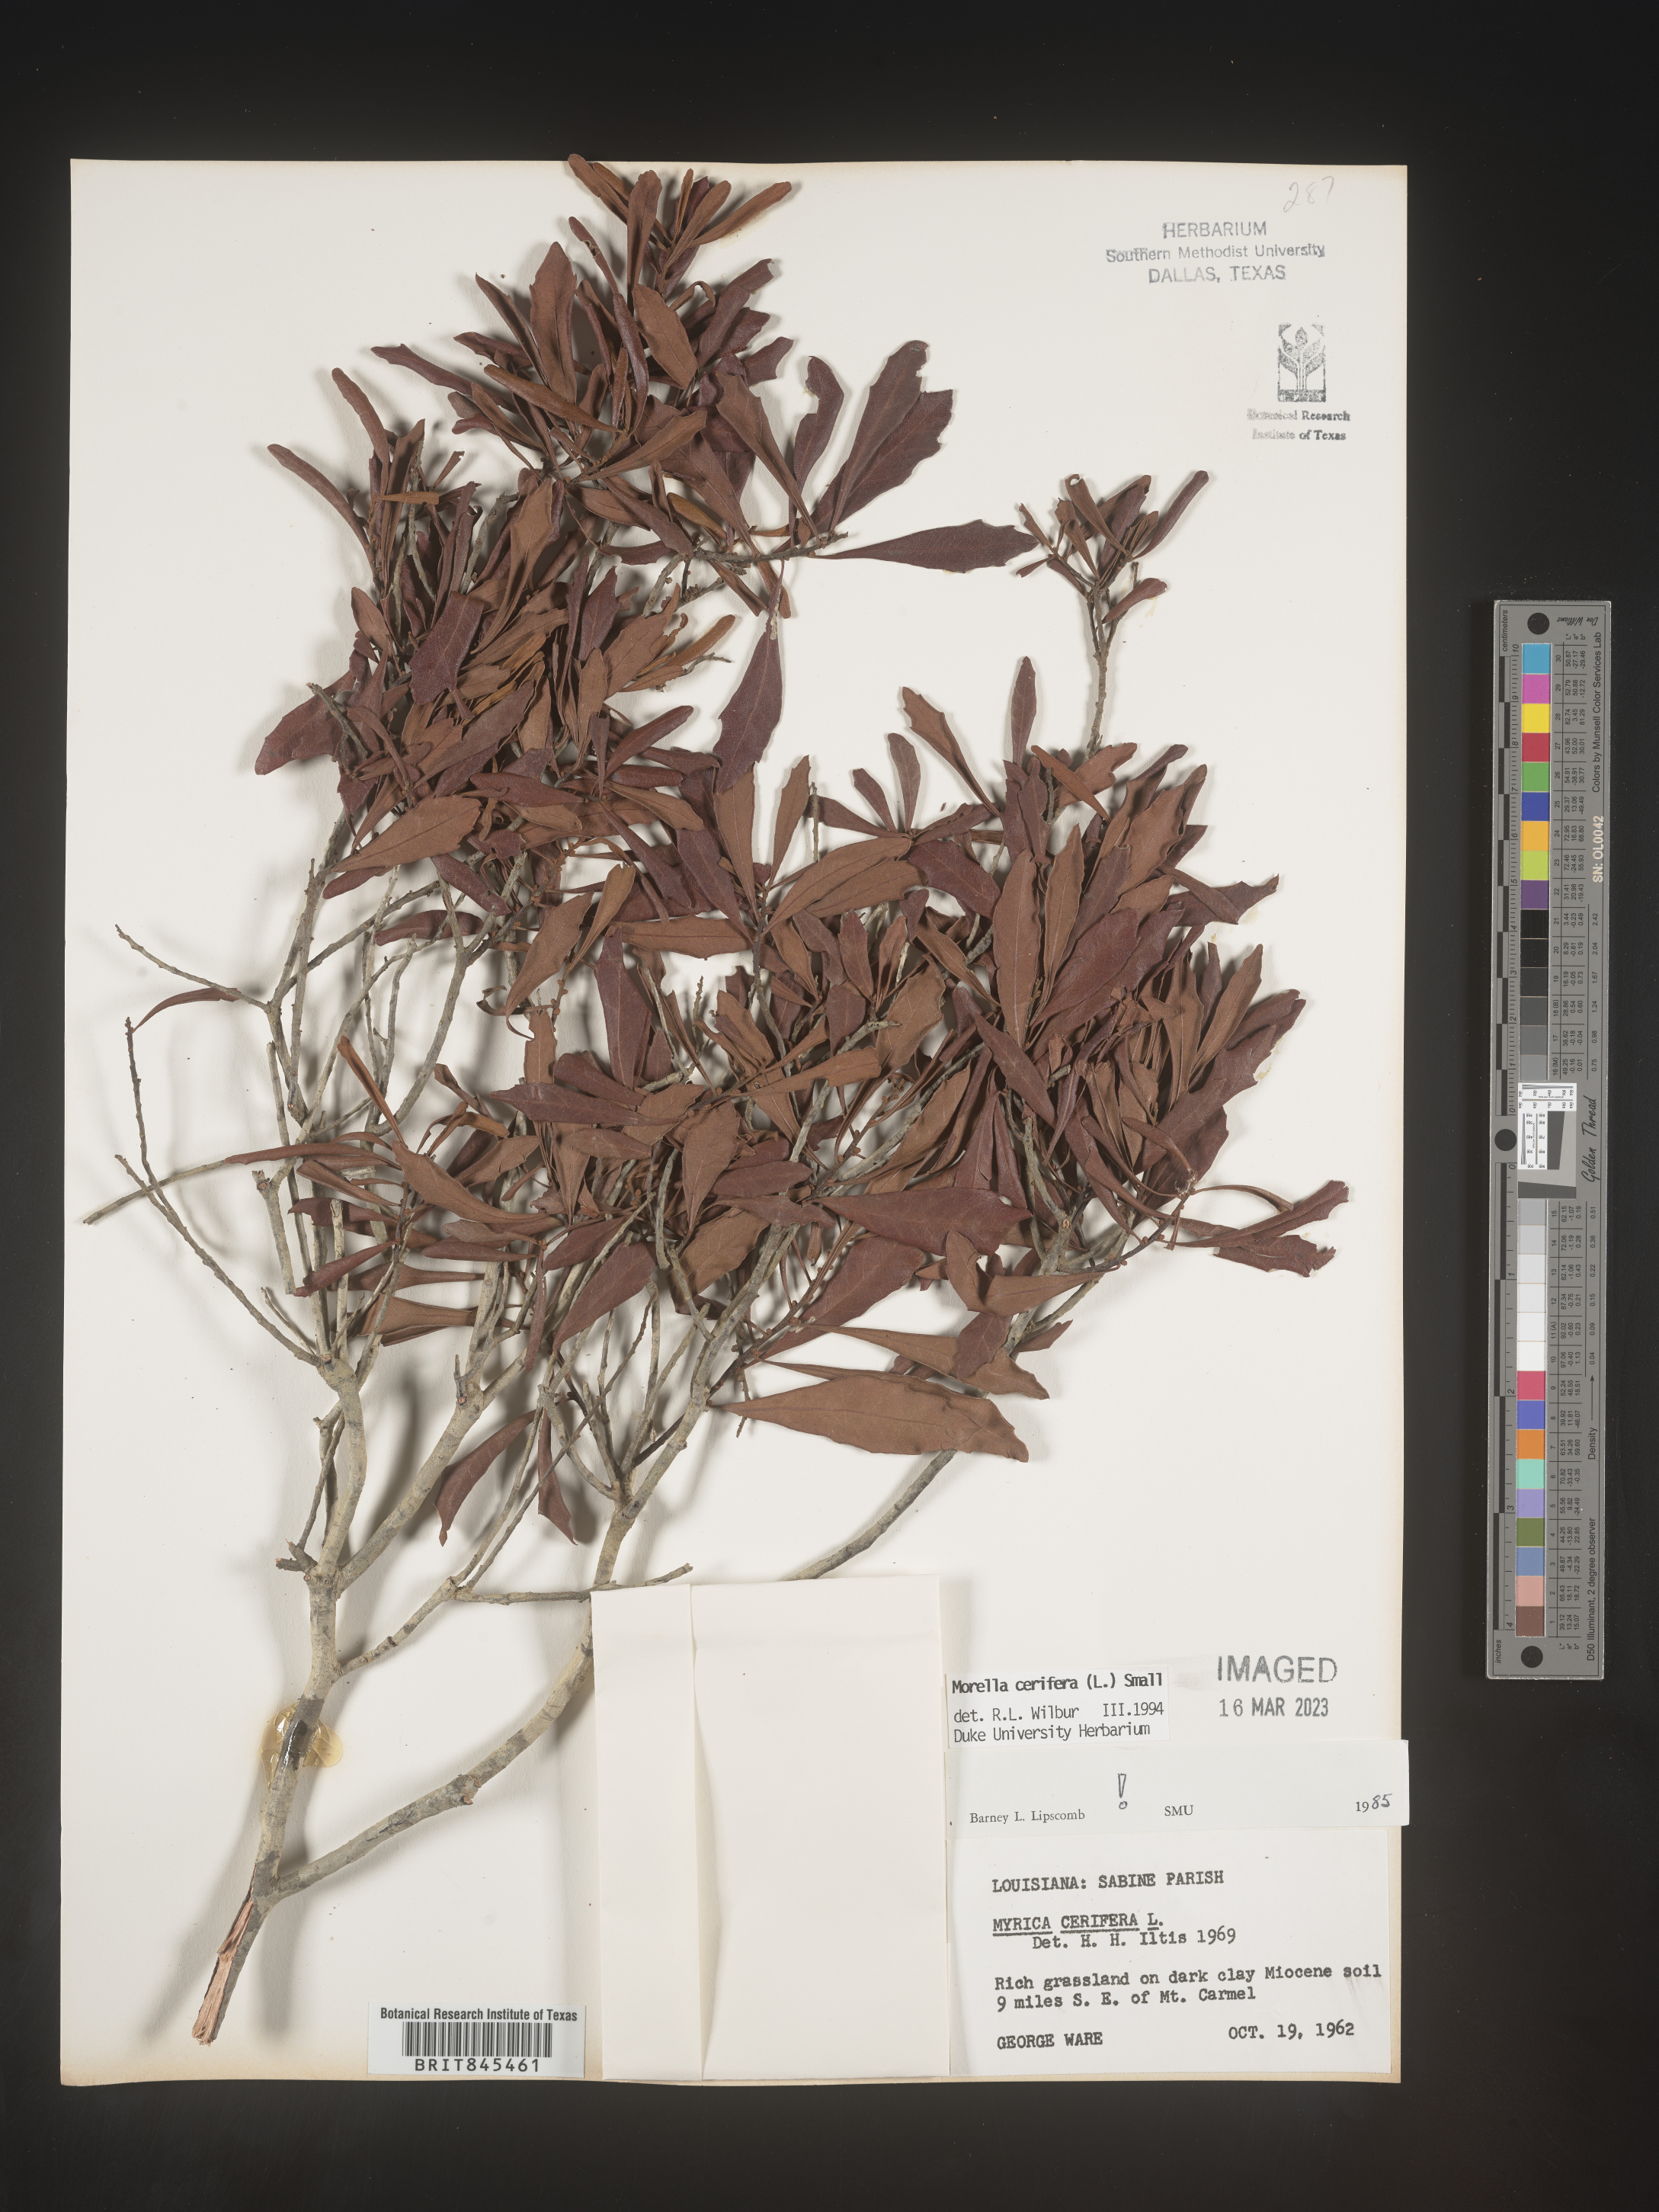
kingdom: Plantae
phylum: Tracheophyta
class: Magnoliopsida
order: Fagales
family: Myricaceae
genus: Morella
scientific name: Morella cerifera
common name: Wax myrtle
